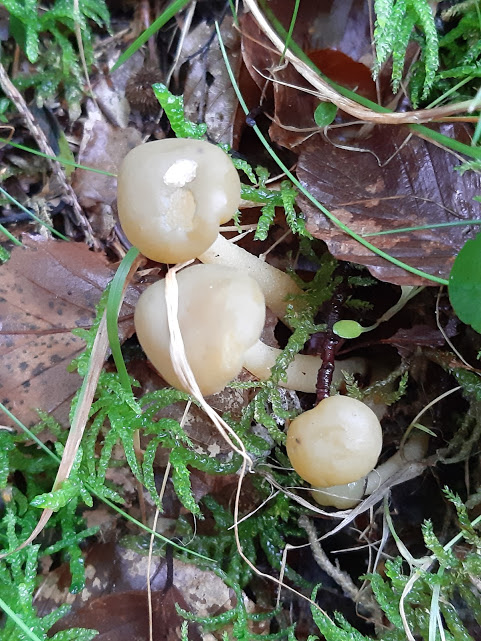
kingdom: Fungi
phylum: Ascomycota
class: Leotiomycetes
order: Leotiales
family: Leotiaceae
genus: Leotia
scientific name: Leotia lubrica
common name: ravsvamp
